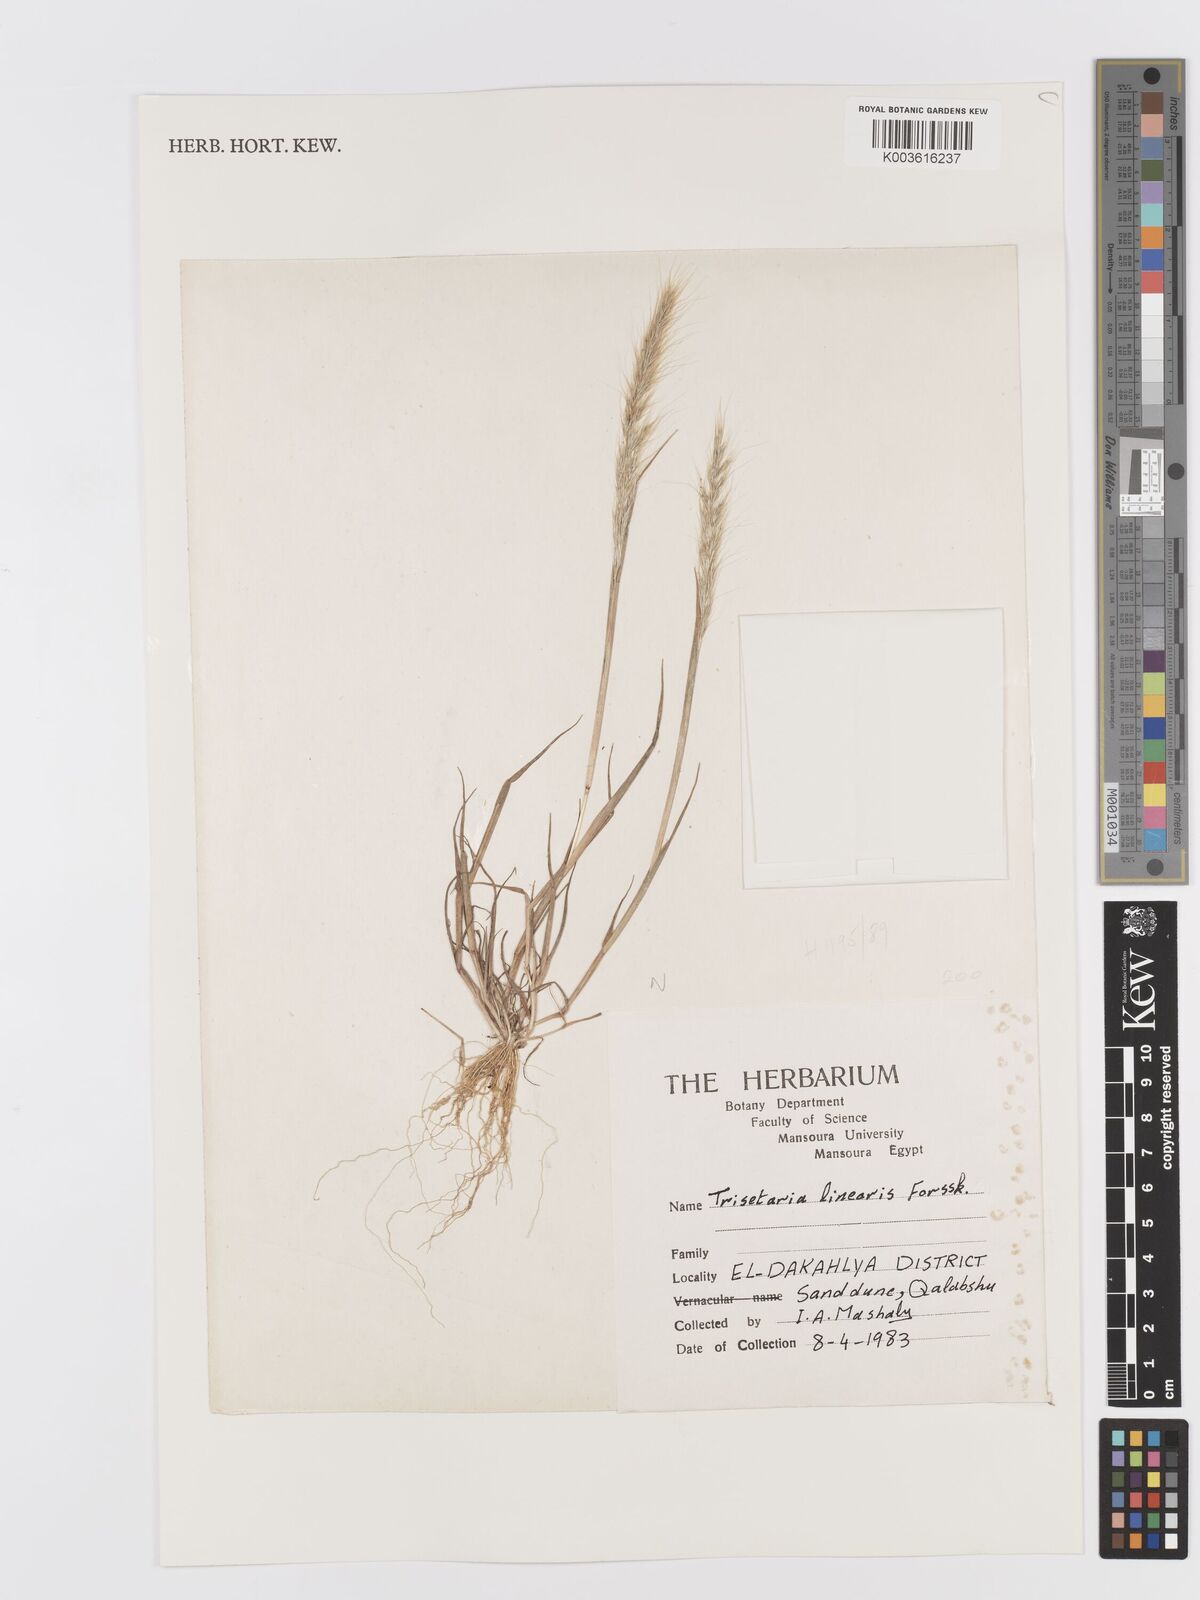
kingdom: Plantae
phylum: Tracheophyta
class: Liliopsida
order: Poales
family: Poaceae
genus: Trisetaria
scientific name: Trisetaria linearis
